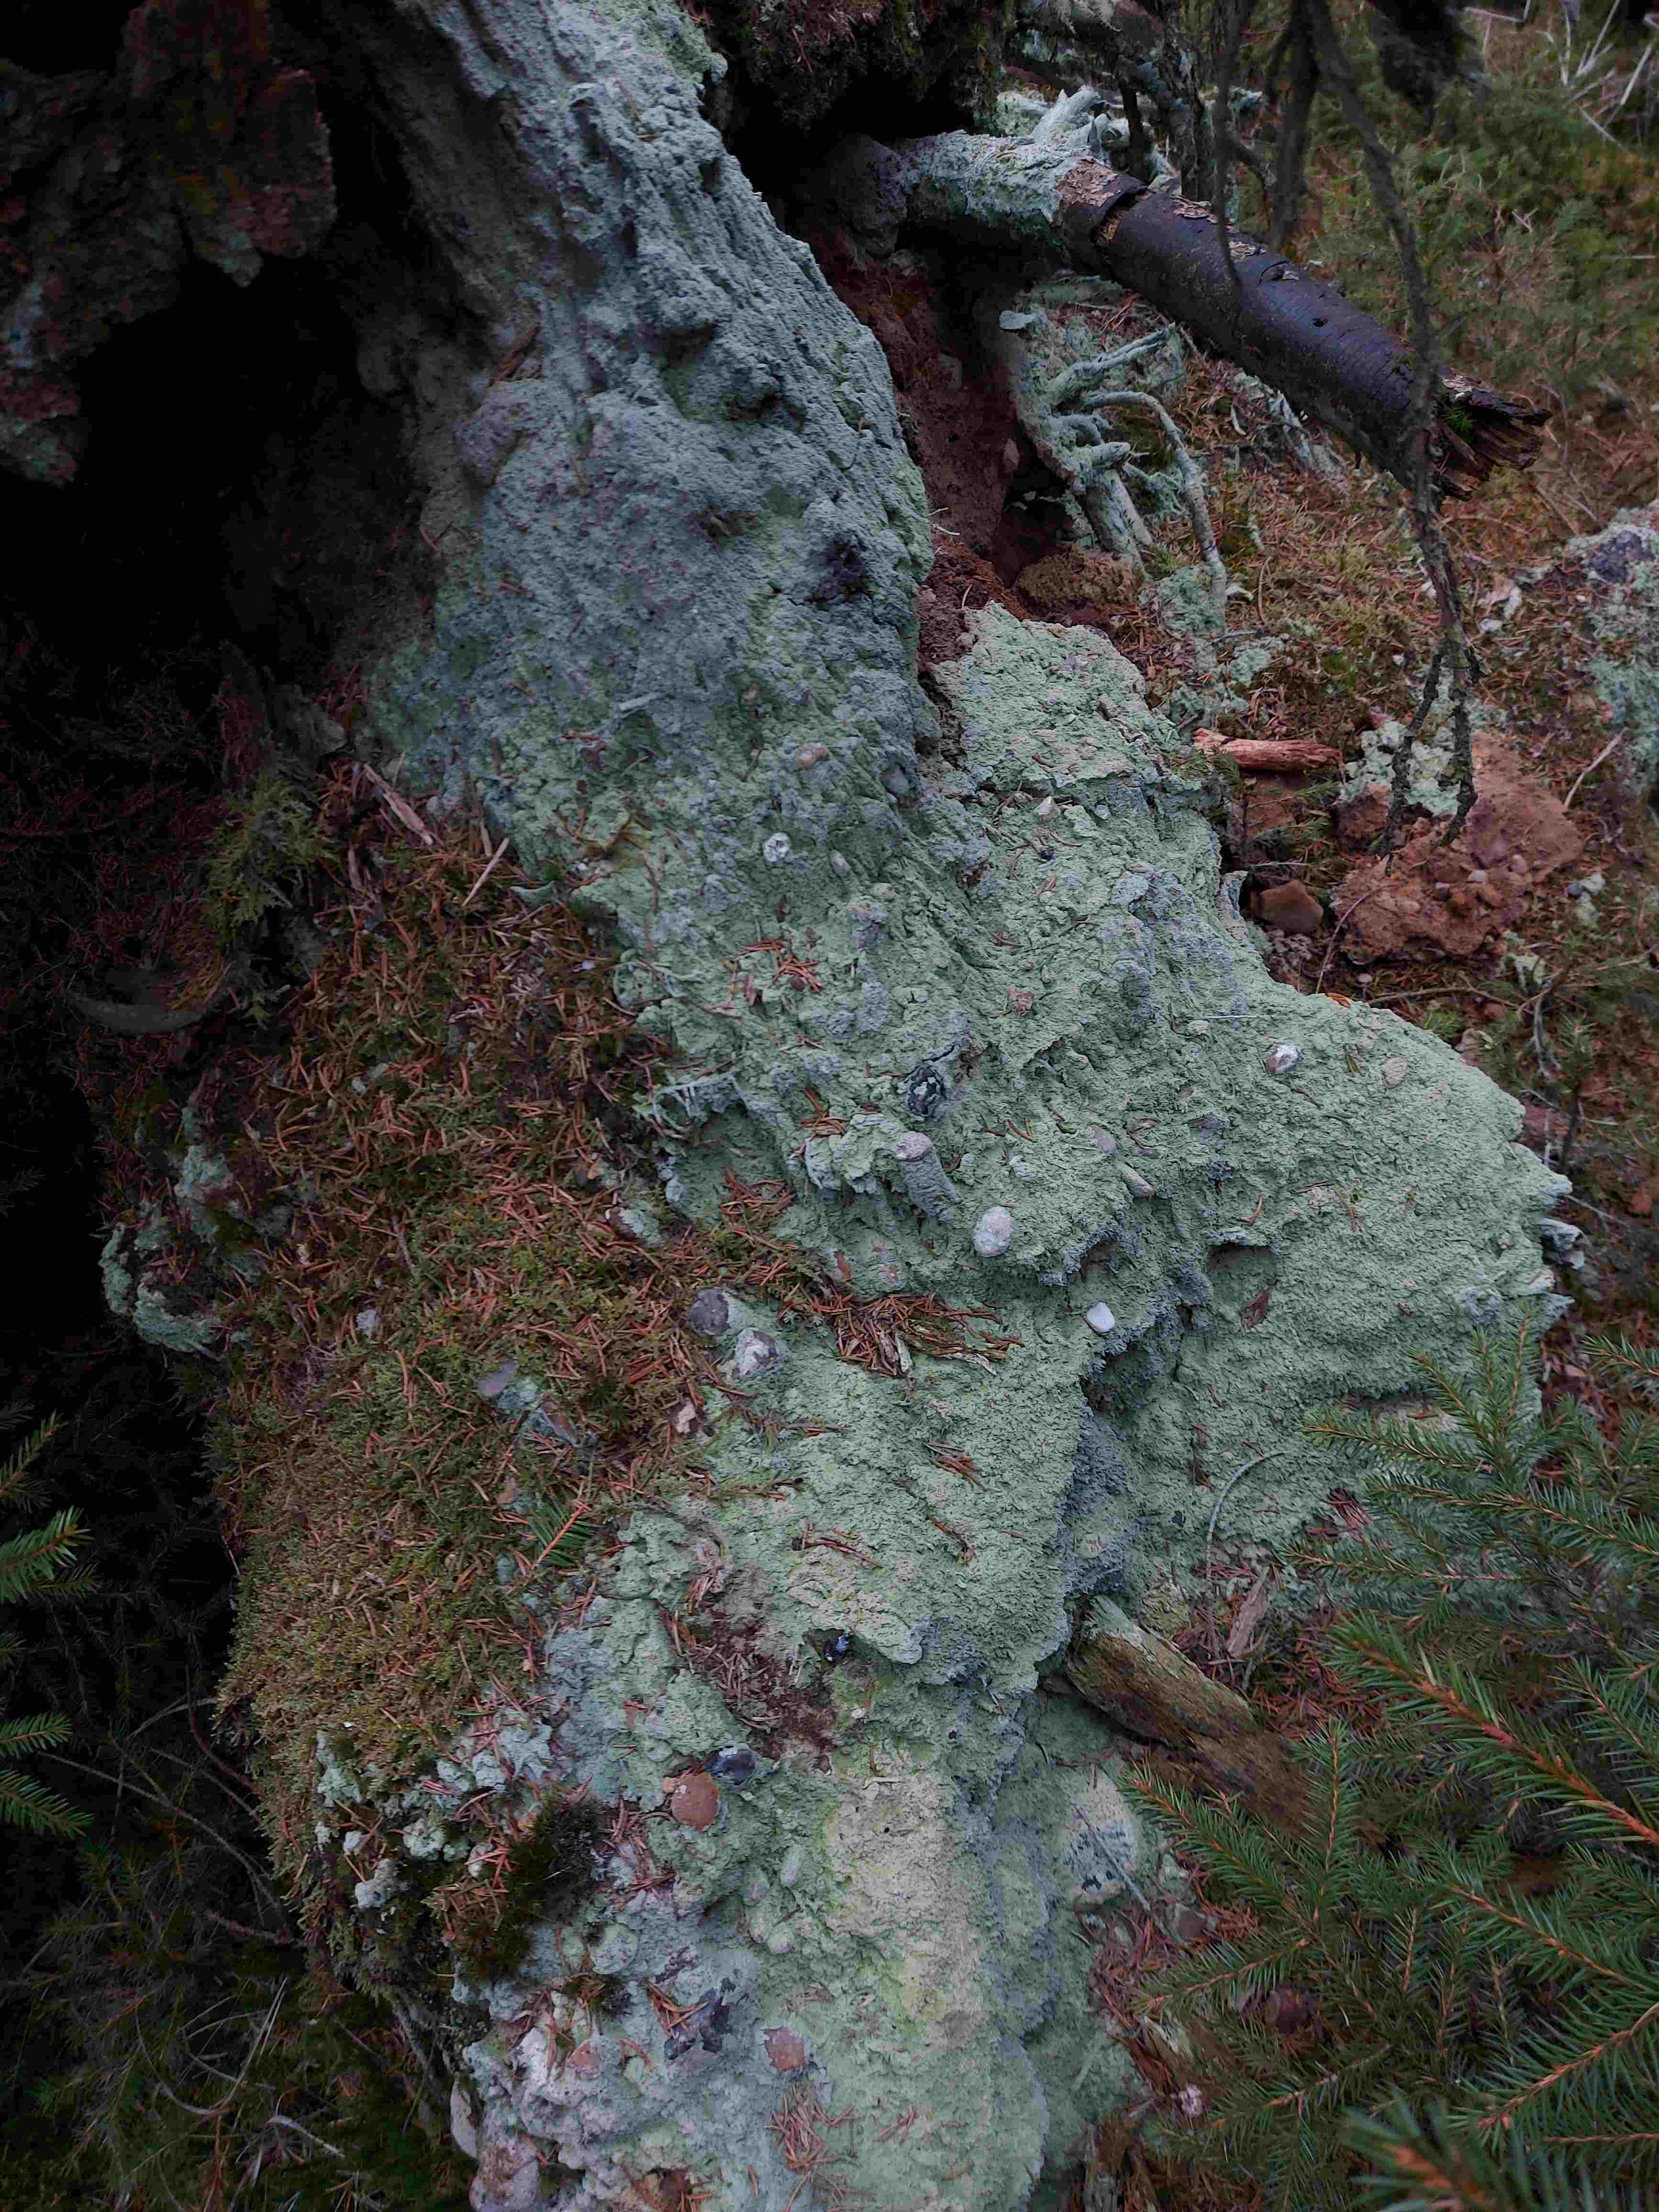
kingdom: Fungi
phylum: Ascomycota
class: Lecanoromycetes
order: Baeomycetales
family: Baeomycetaceae
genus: Baeomyces
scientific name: Baeomyces rufus
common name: rødbrun svampelav
